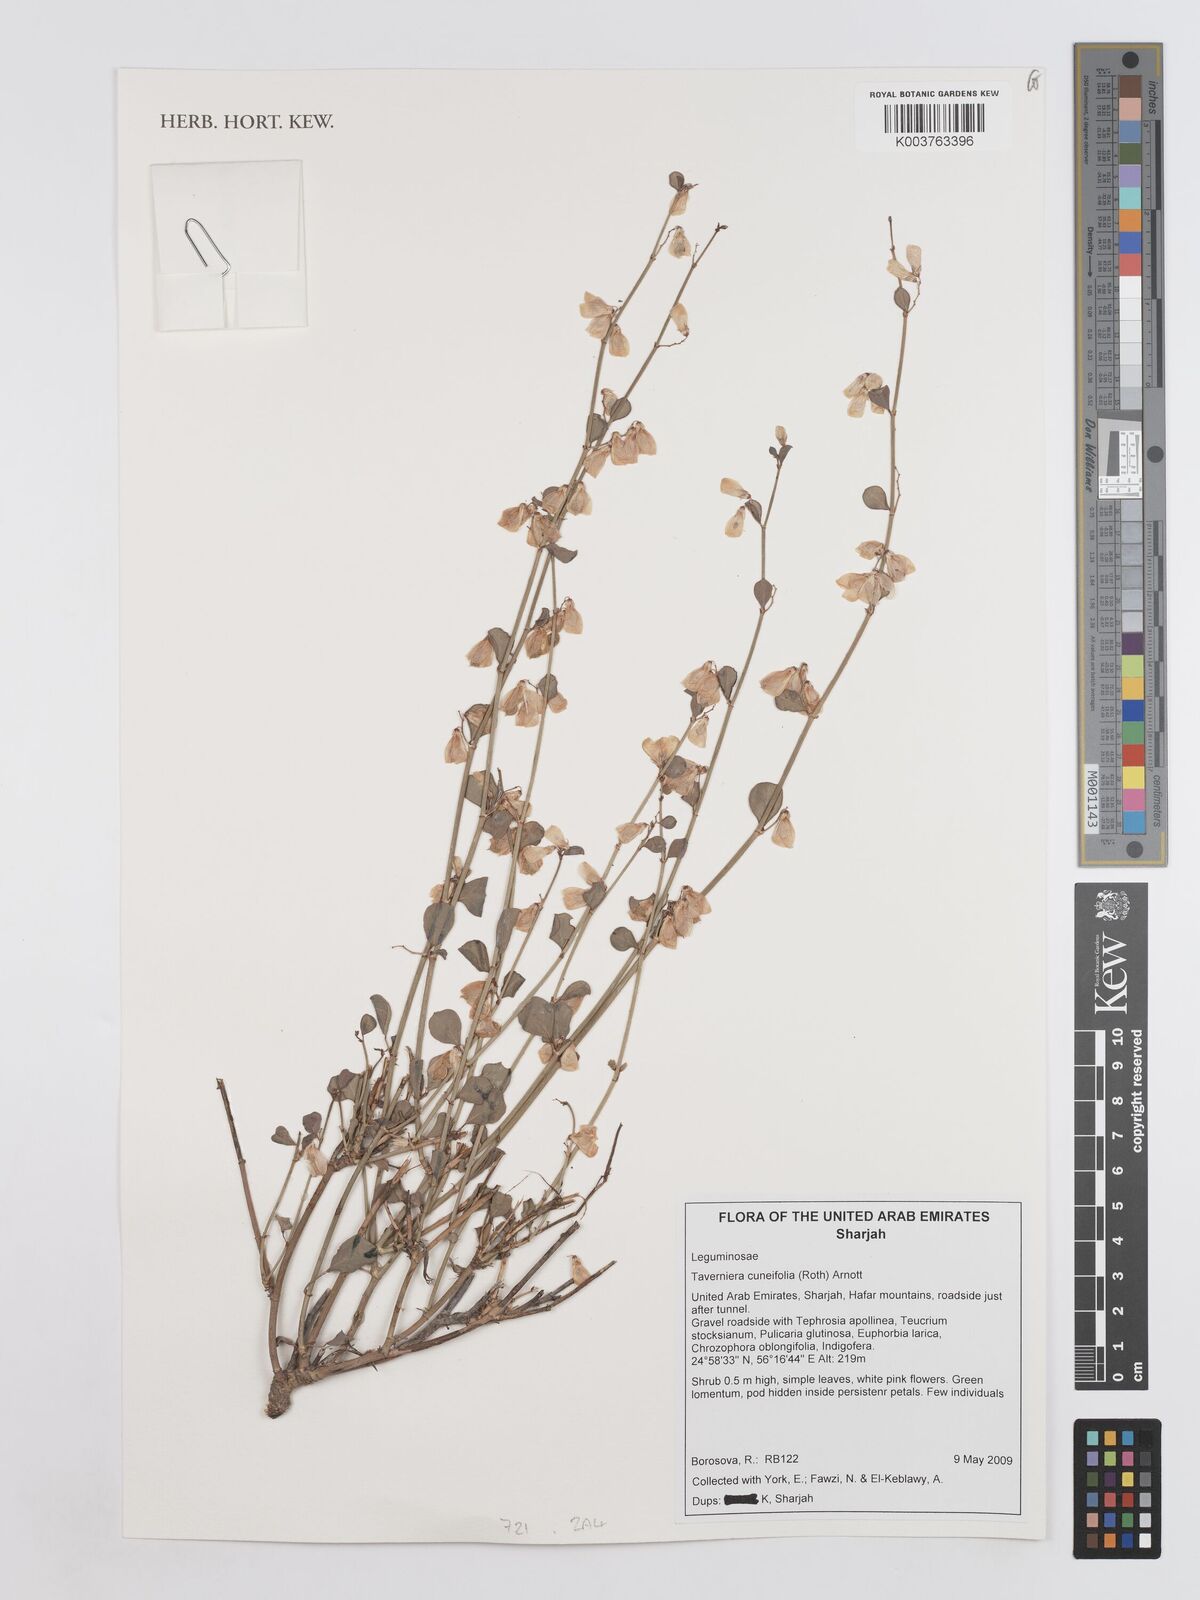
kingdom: Plantae
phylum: Tracheophyta
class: Magnoliopsida
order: Fabales
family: Fabaceae
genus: Taverniera
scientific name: Taverniera cuneifolia
